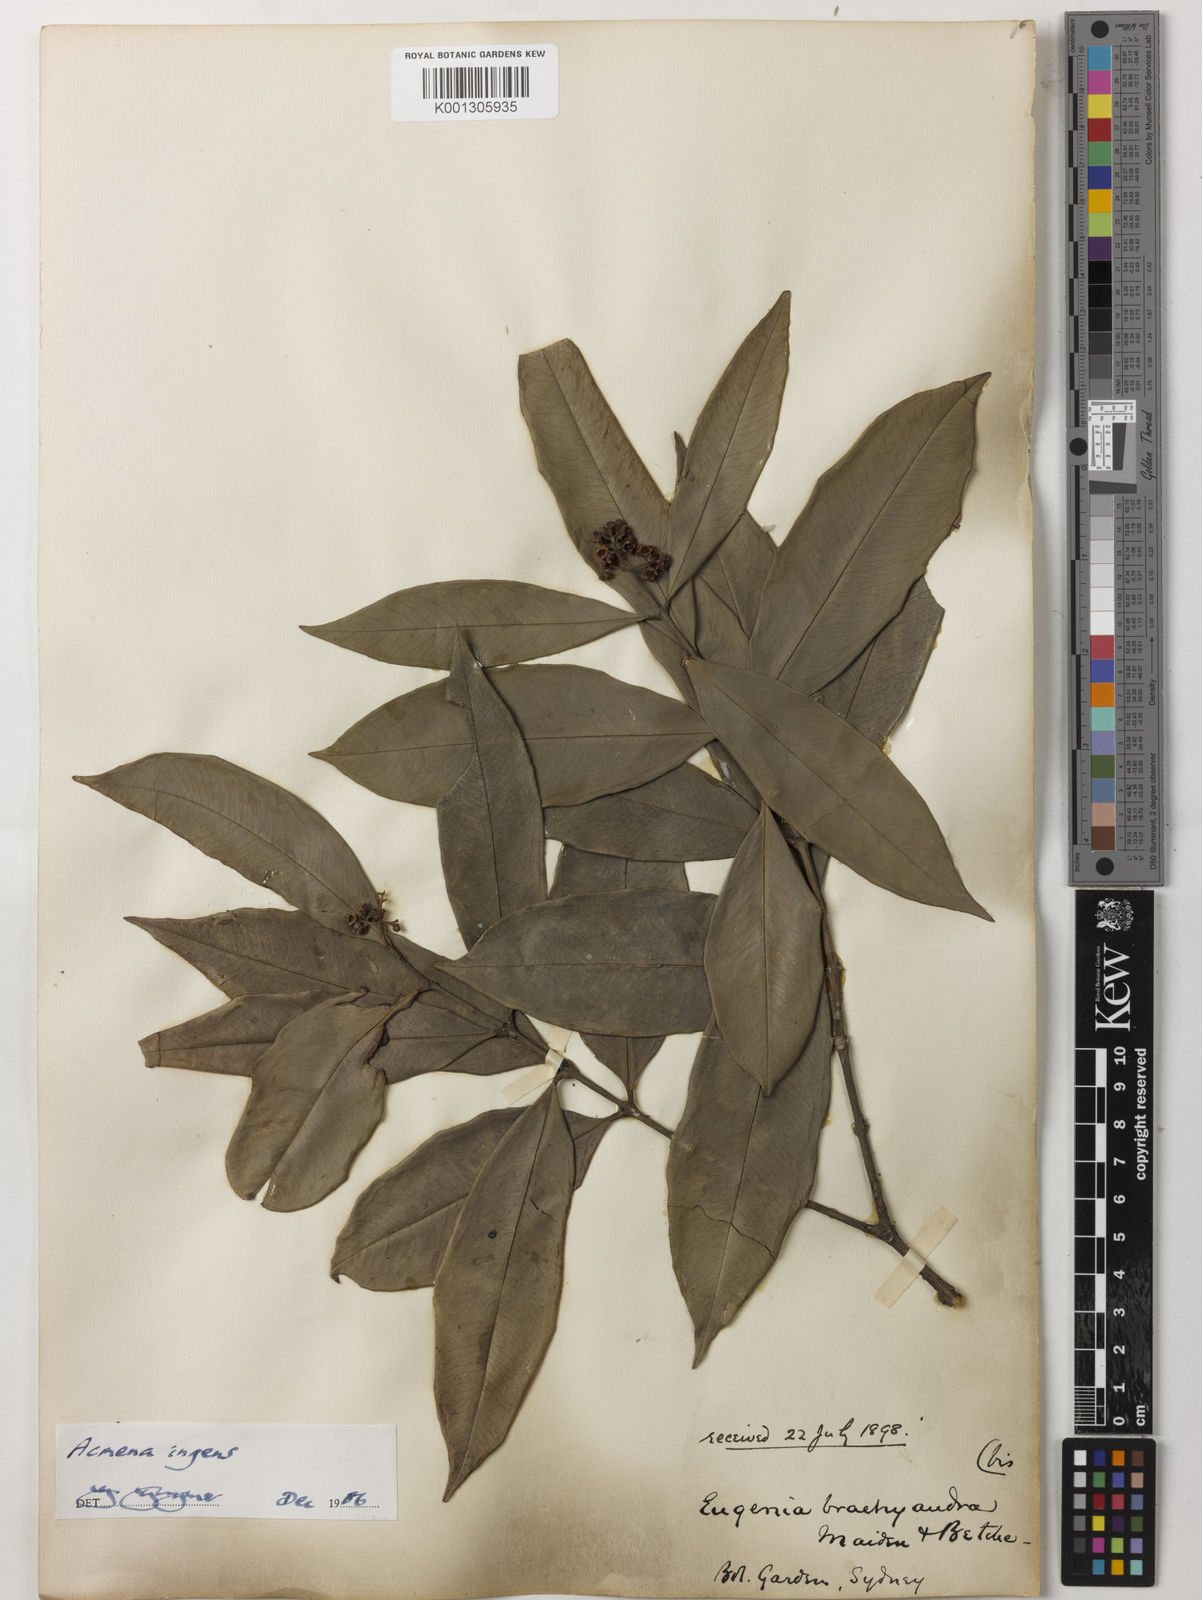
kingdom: Plantae
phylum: Tracheophyta
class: Magnoliopsida
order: Myrtales
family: Myrtaceae
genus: Syzygium
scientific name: Syzygium ingens
